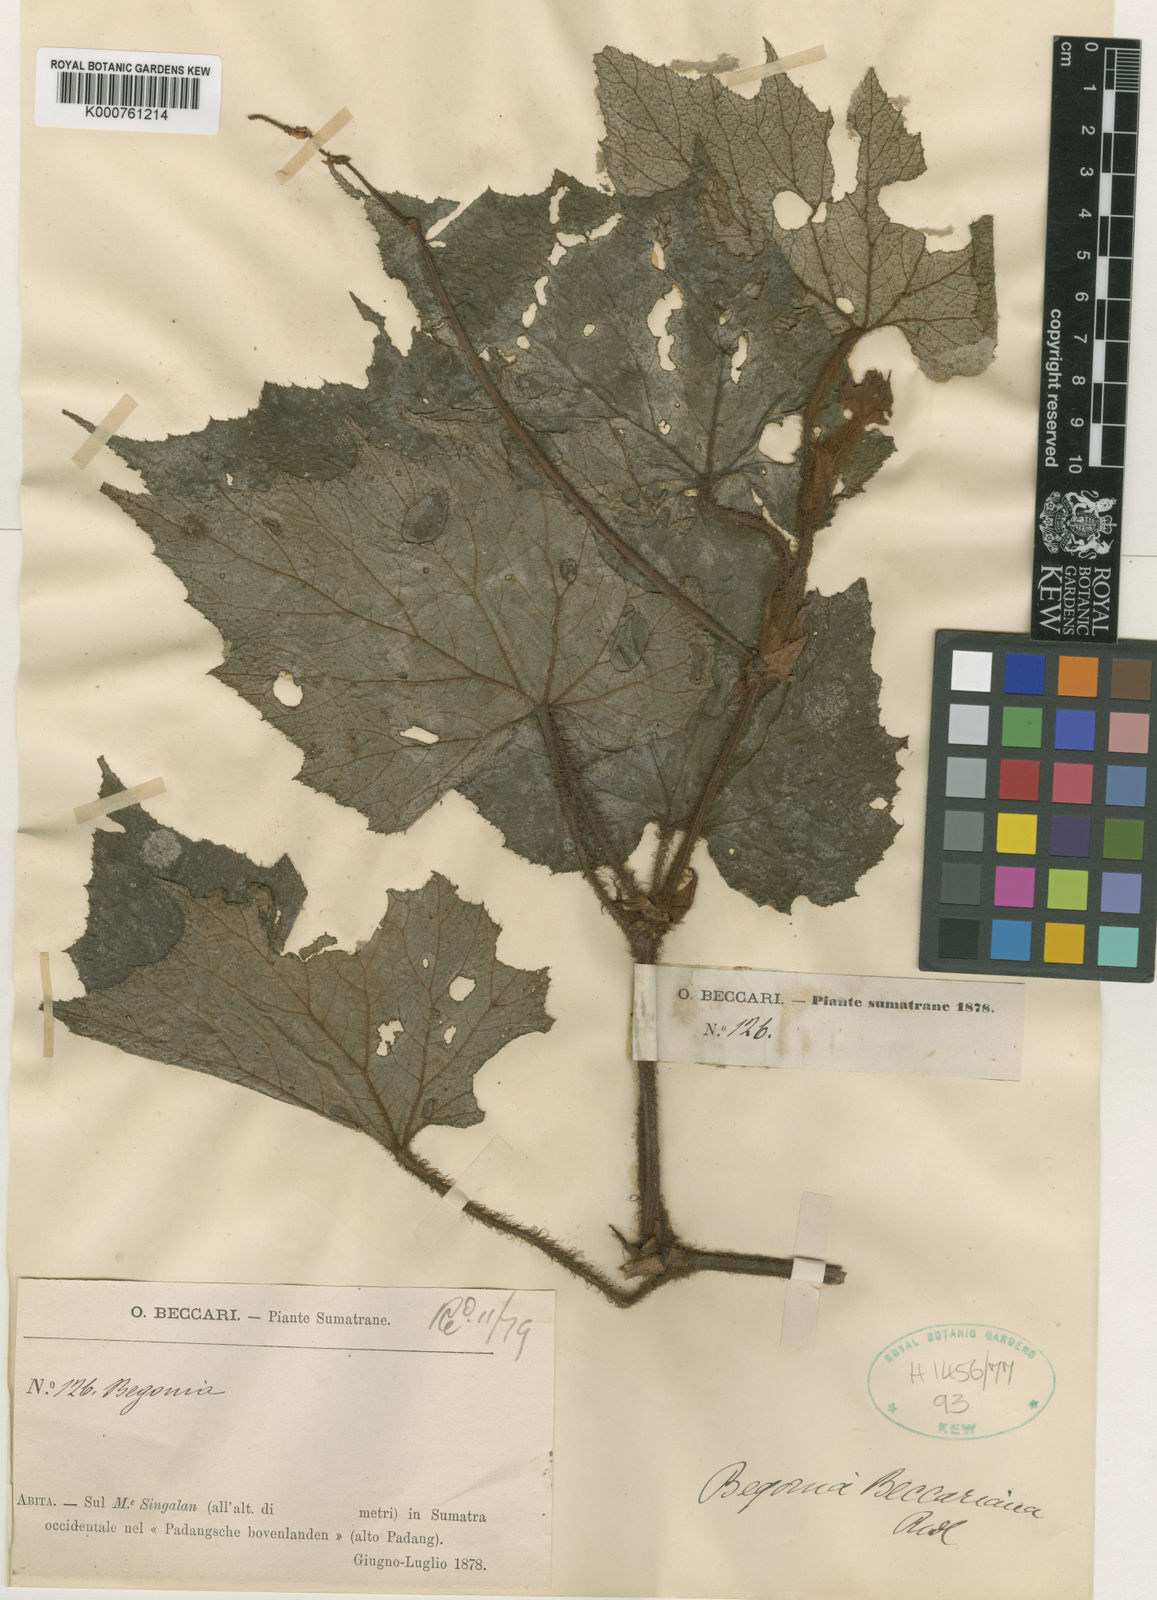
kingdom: Plantae
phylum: Tracheophyta
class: Magnoliopsida
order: Cucurbitales
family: Begoniaceae
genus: Begonia
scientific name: Begonia beccariana
